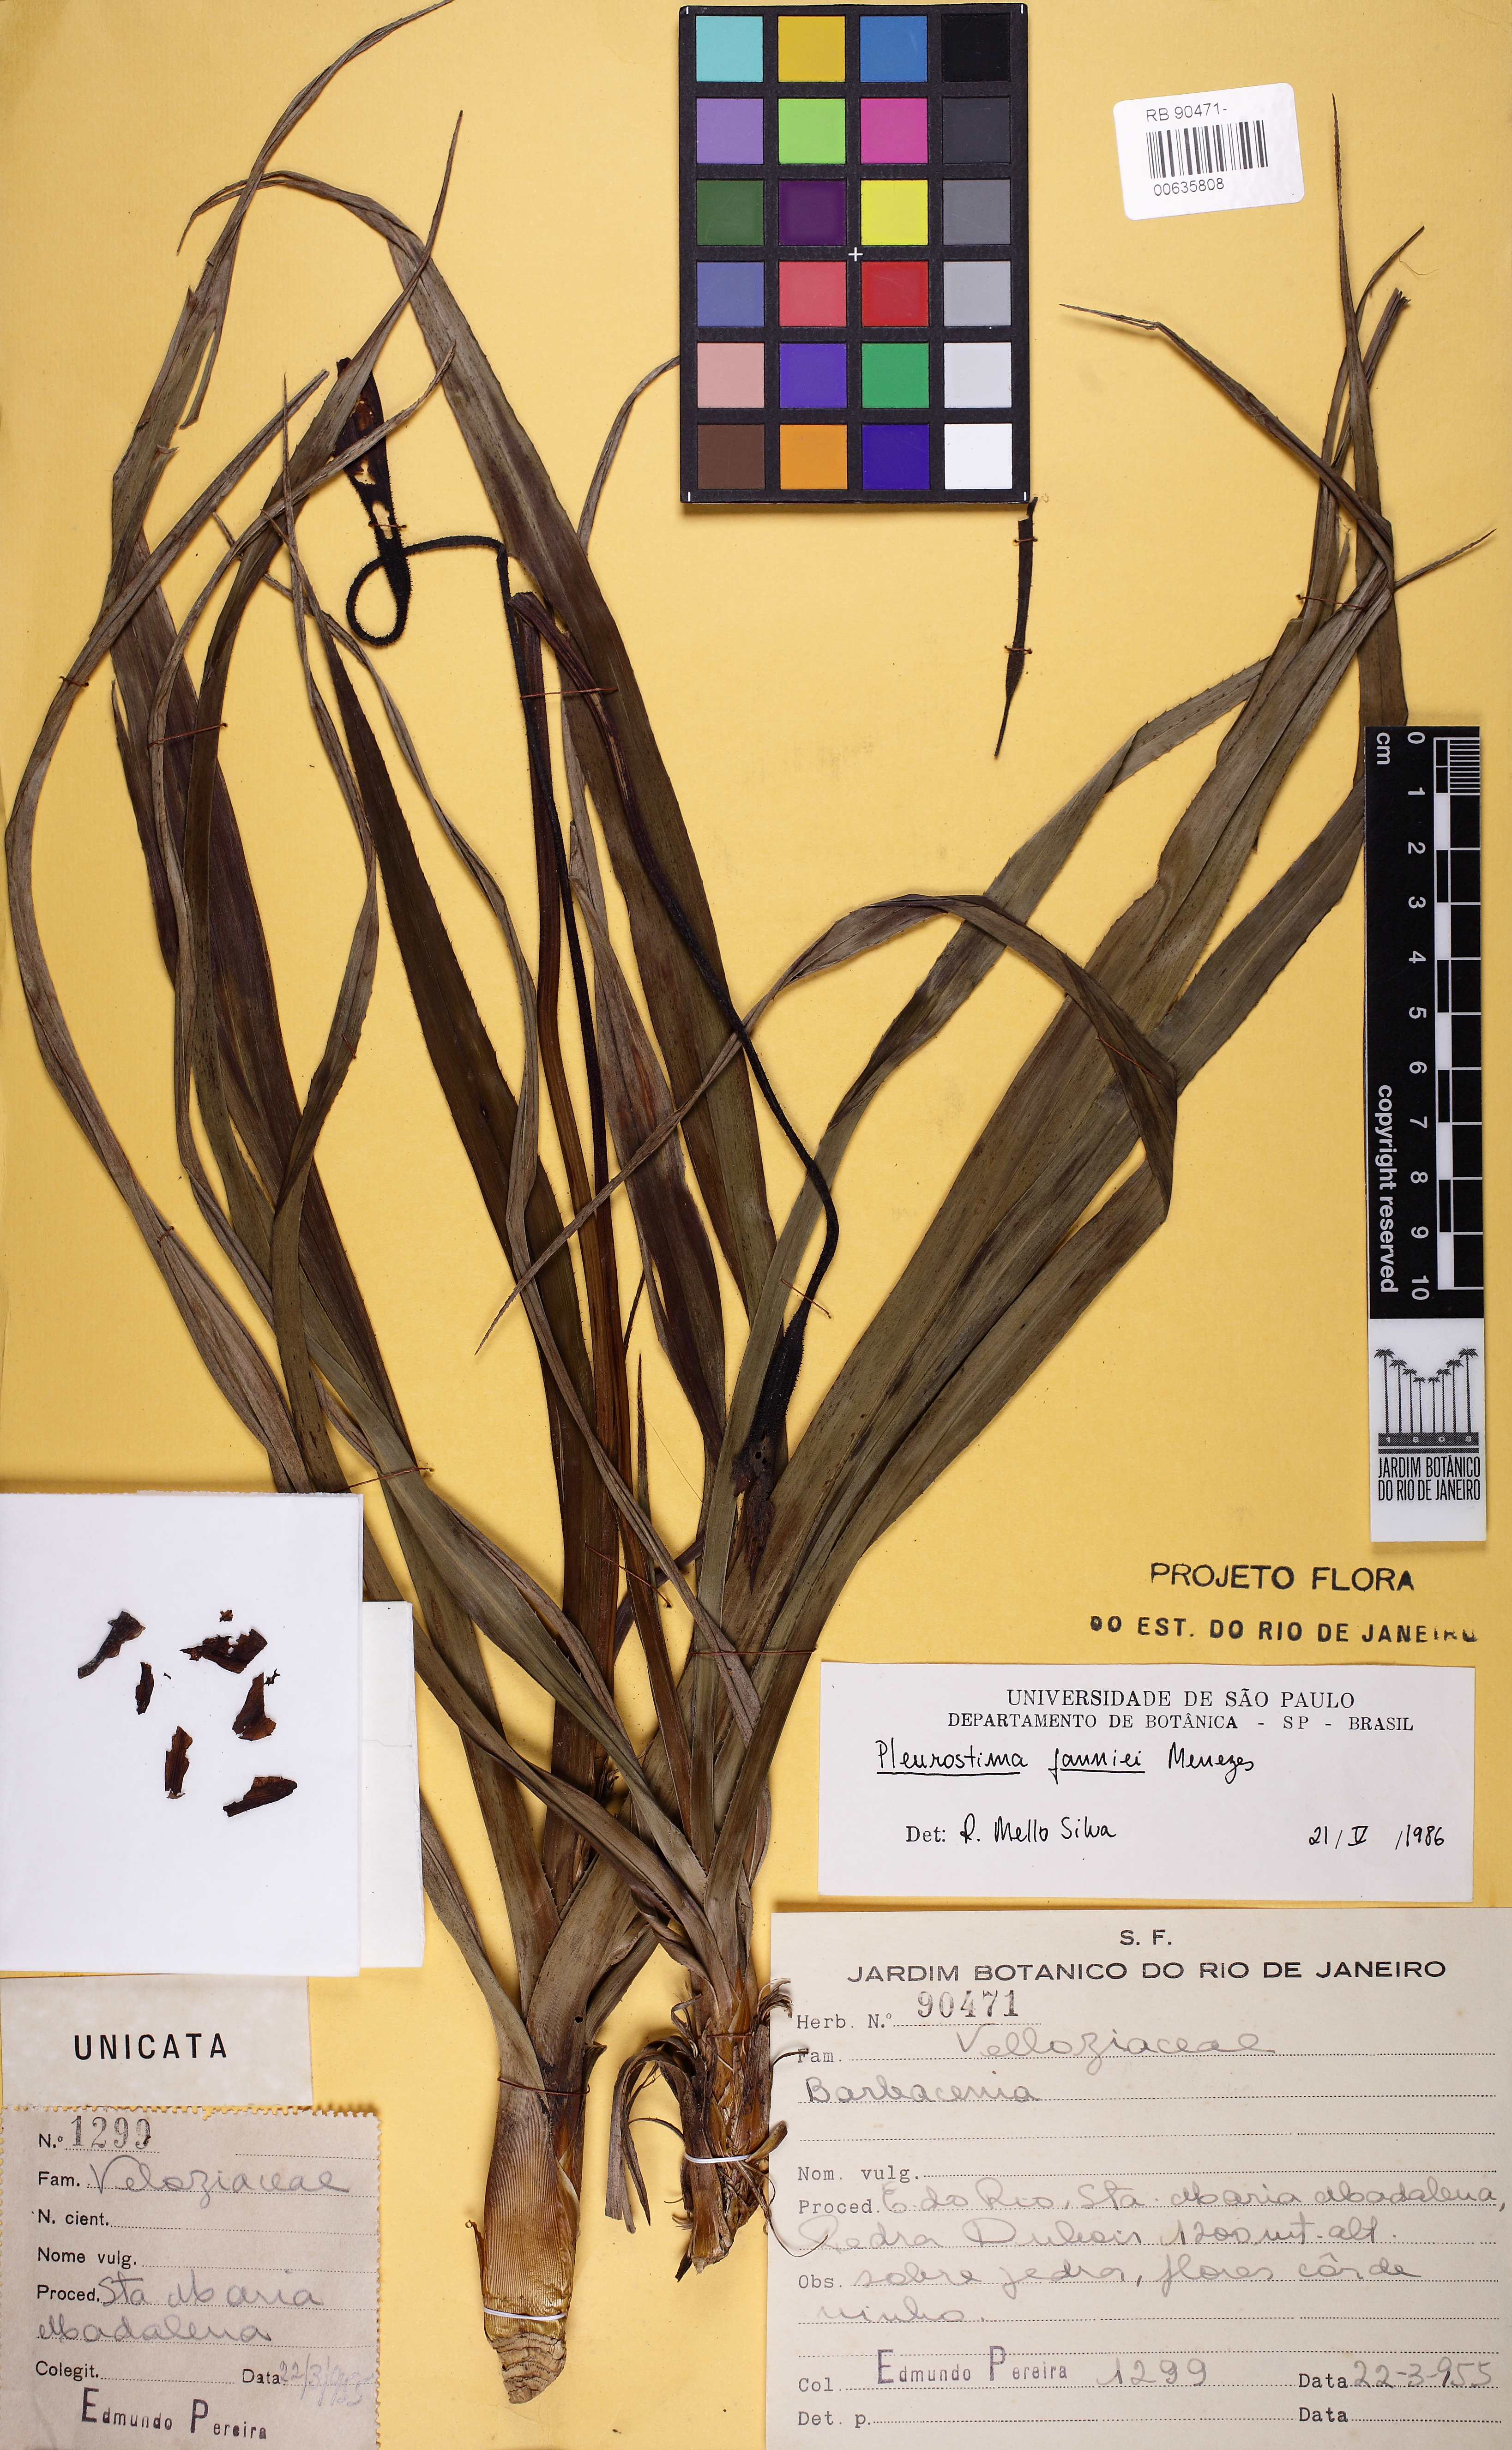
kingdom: Plantae
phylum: Tracheophyta
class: Liliopsida
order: Pandanales
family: Velloziaceae
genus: Barbacenia
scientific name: Barbacenia fanniae
